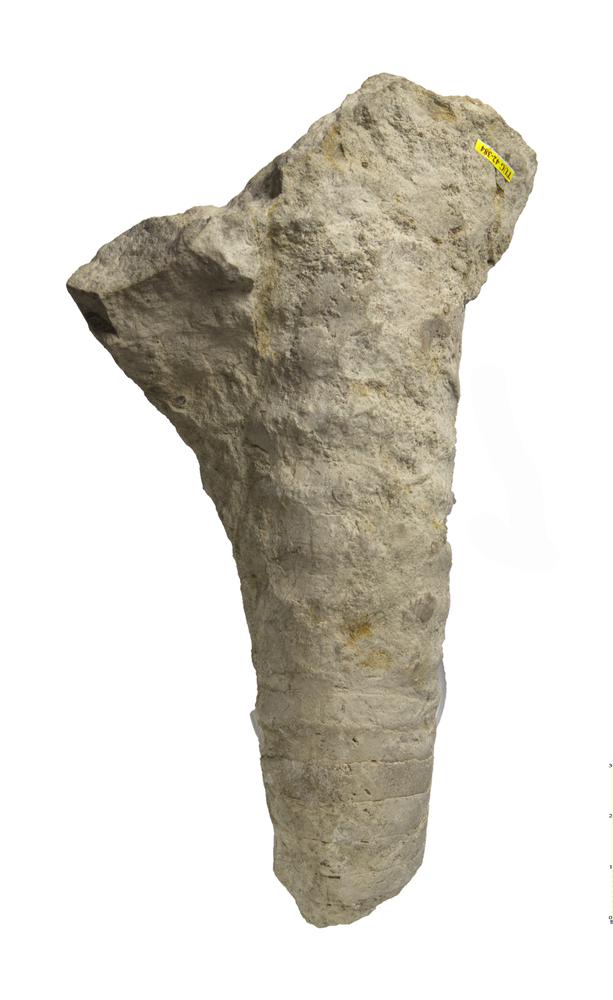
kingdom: Animalia
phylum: Mollusca
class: Cephalopoda
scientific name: Cephalopoda
